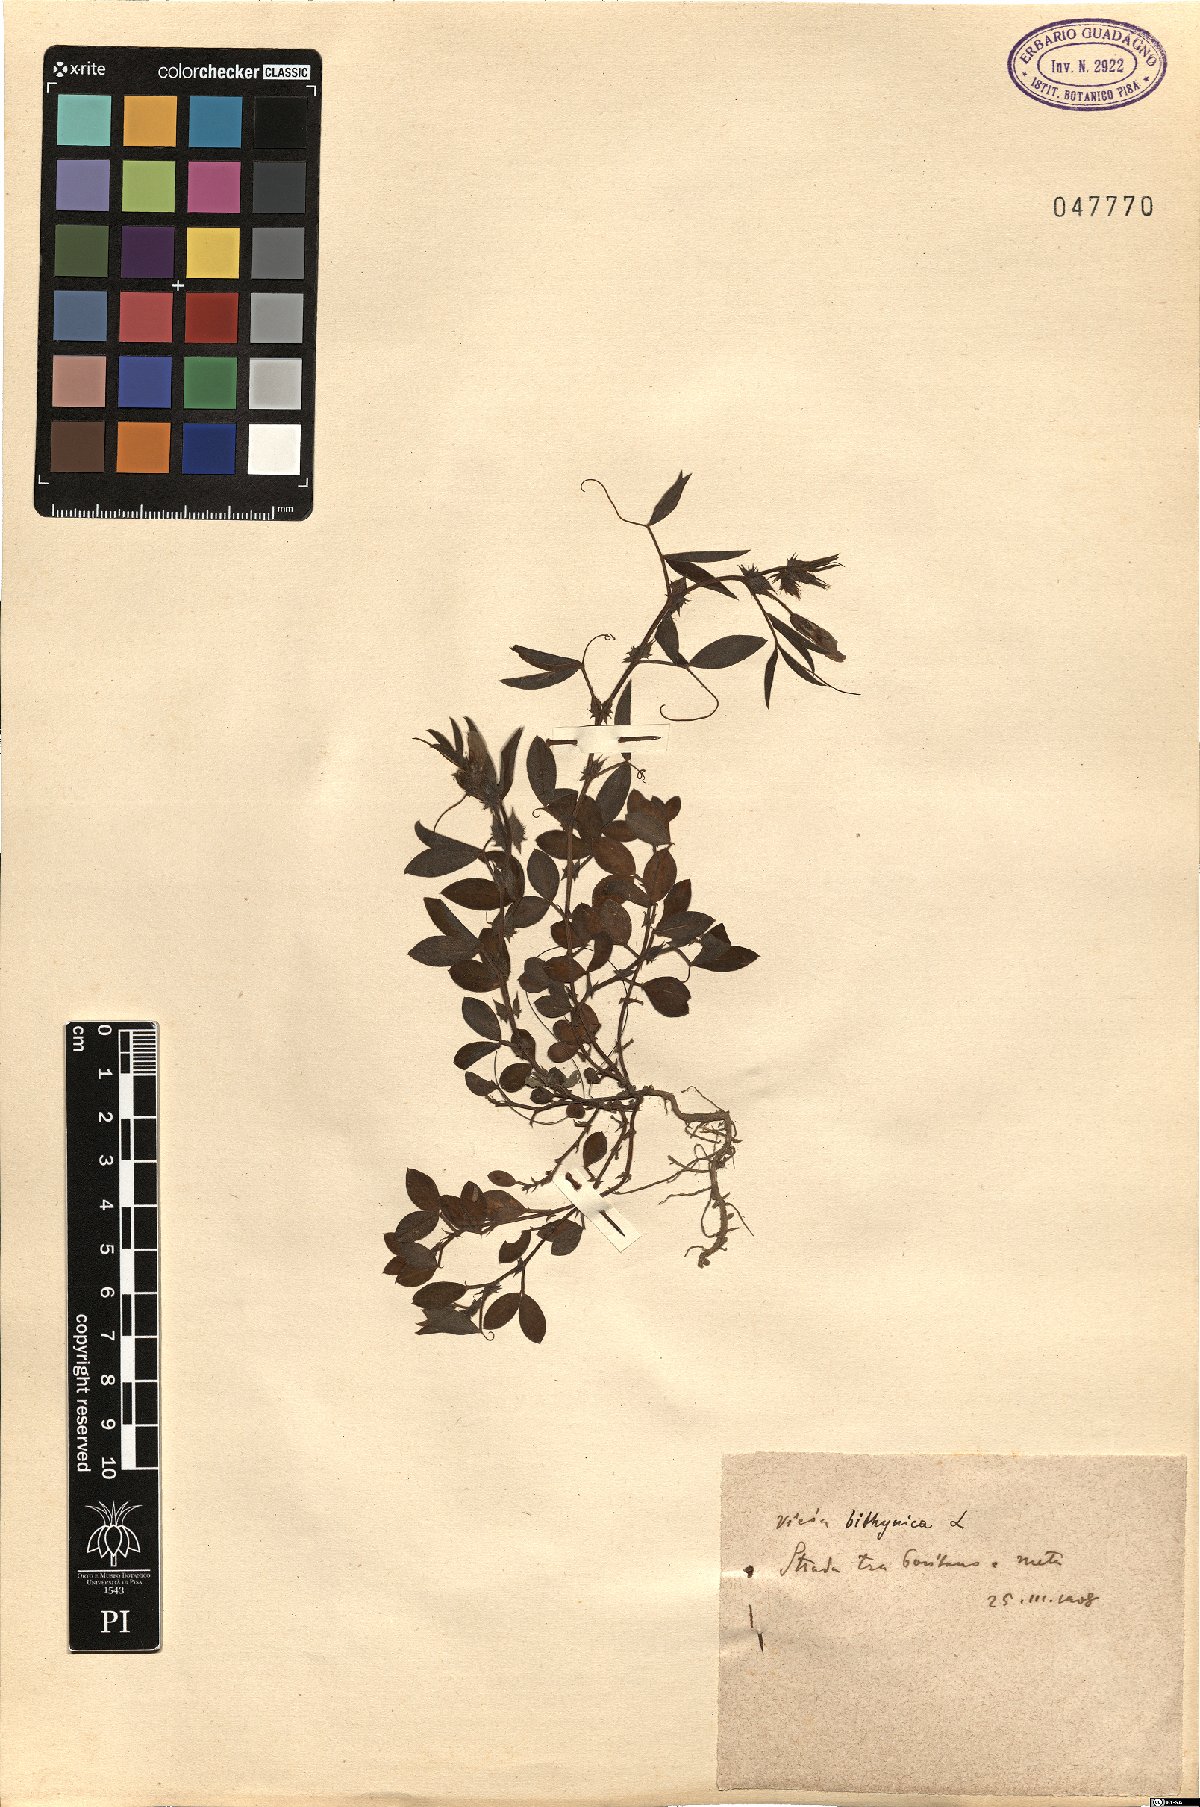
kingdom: Plantae
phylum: Tracheophyta
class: Magnoliopsida
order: Fabales
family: Fabaceae
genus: Vicia
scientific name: Vicia bithynica
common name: Bithynian vetch
